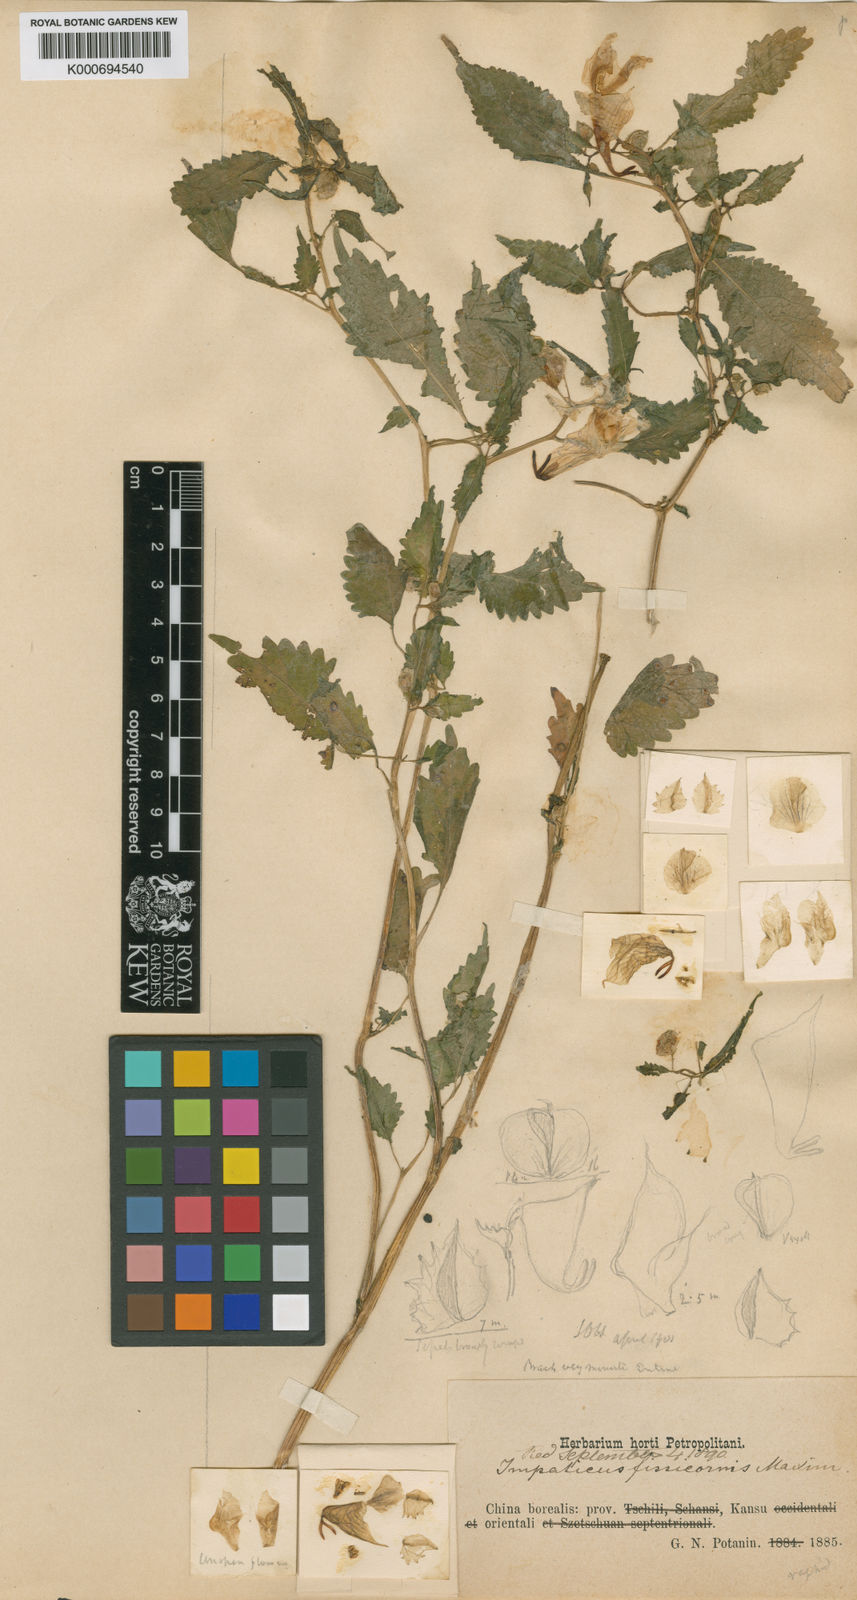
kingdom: Plantae
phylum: Tracheophyta
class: Magnoliopsida
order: Ericales
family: Balsaminaceae
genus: Impatiens
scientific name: Impatiens fissicornis
